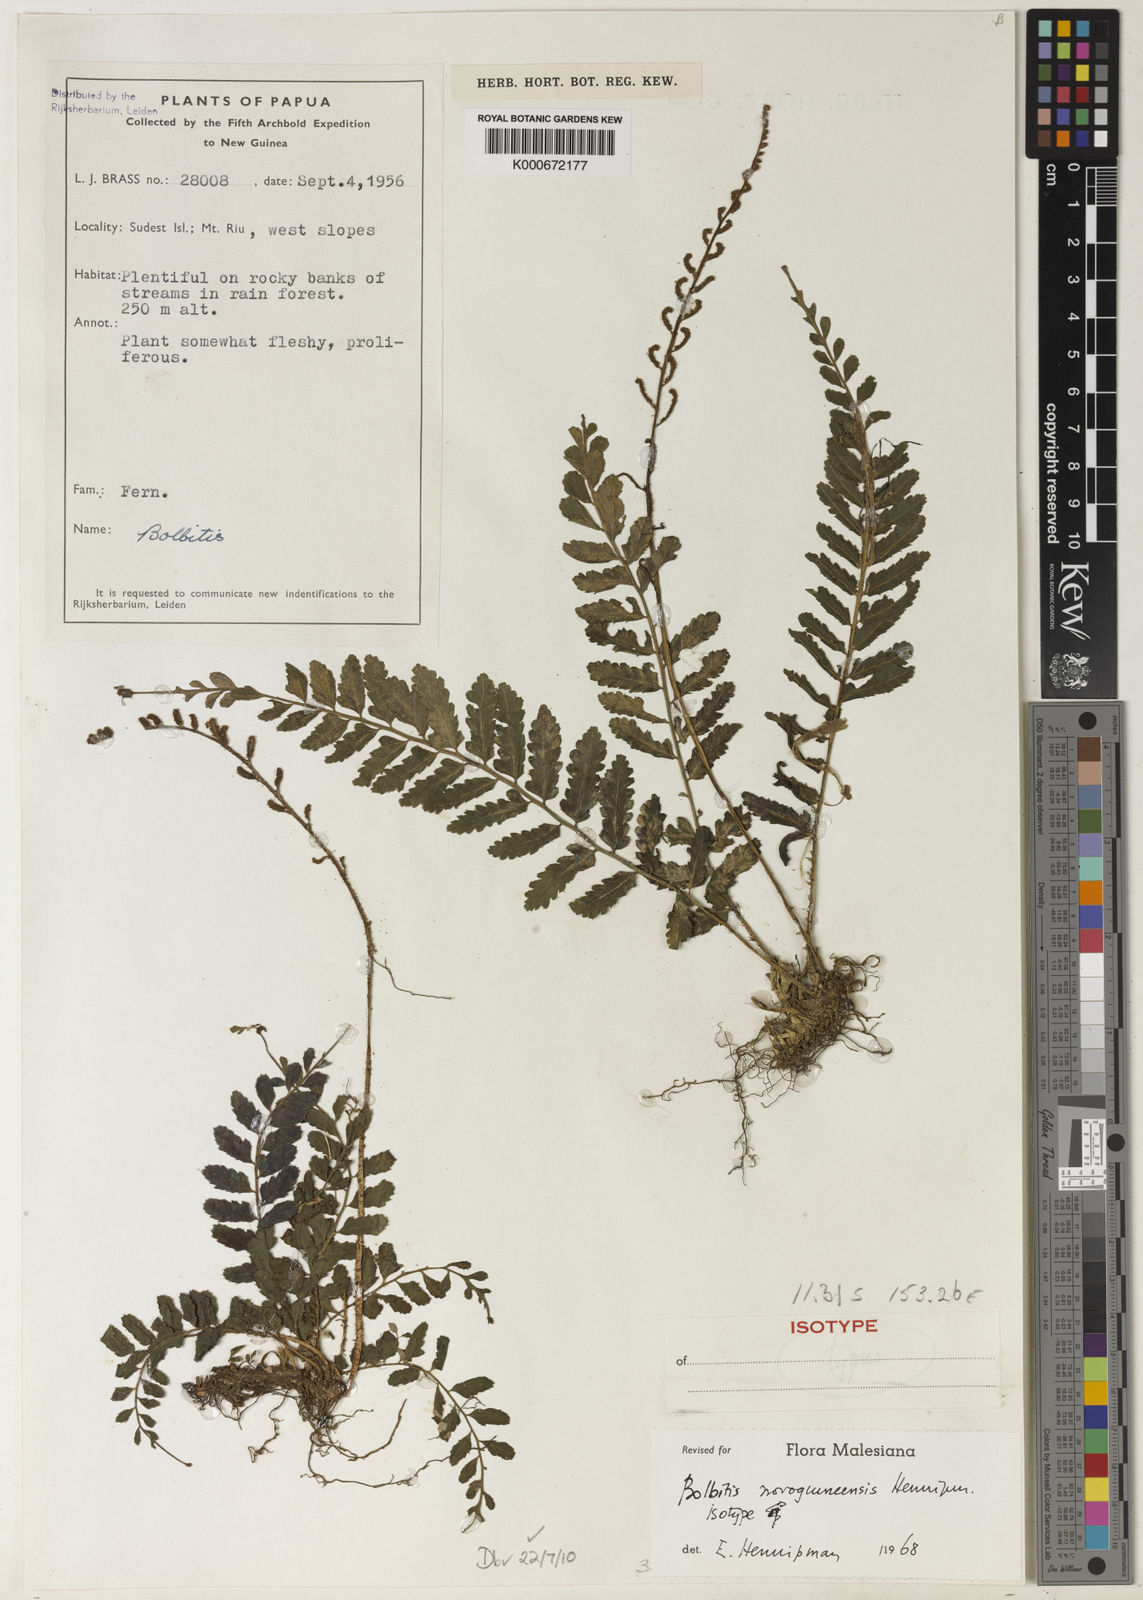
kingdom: Plantae
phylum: Tracheophyta
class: Polypodiopsida
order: Polypodiales
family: Dryopteridaceae
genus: Bolbitis
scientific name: Bolbitis novoguineensis
